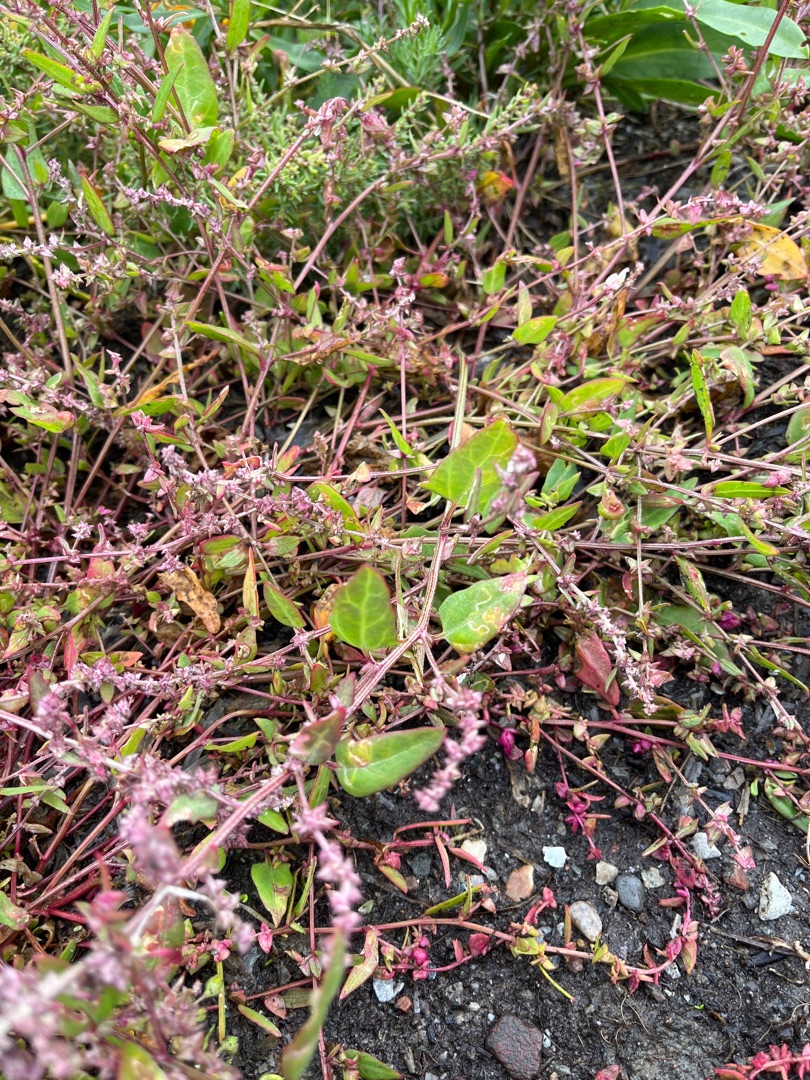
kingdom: Plantae
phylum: Tracheophyta
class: Magnoliopsida
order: Caryophyllales
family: Amaranthaceae
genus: Atriplex
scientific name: Atriplex prostrata
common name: Spyd-mælde
